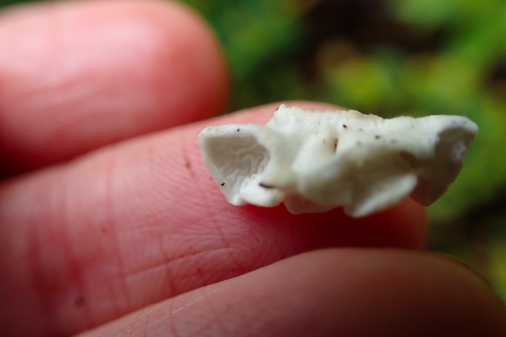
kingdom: Fungi
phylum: Basidiomycota
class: Agaricomycetes
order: Amylocorticiales
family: Amylocorticiaceae
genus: Plicaturopsis
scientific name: Plicaturopsis crispa
